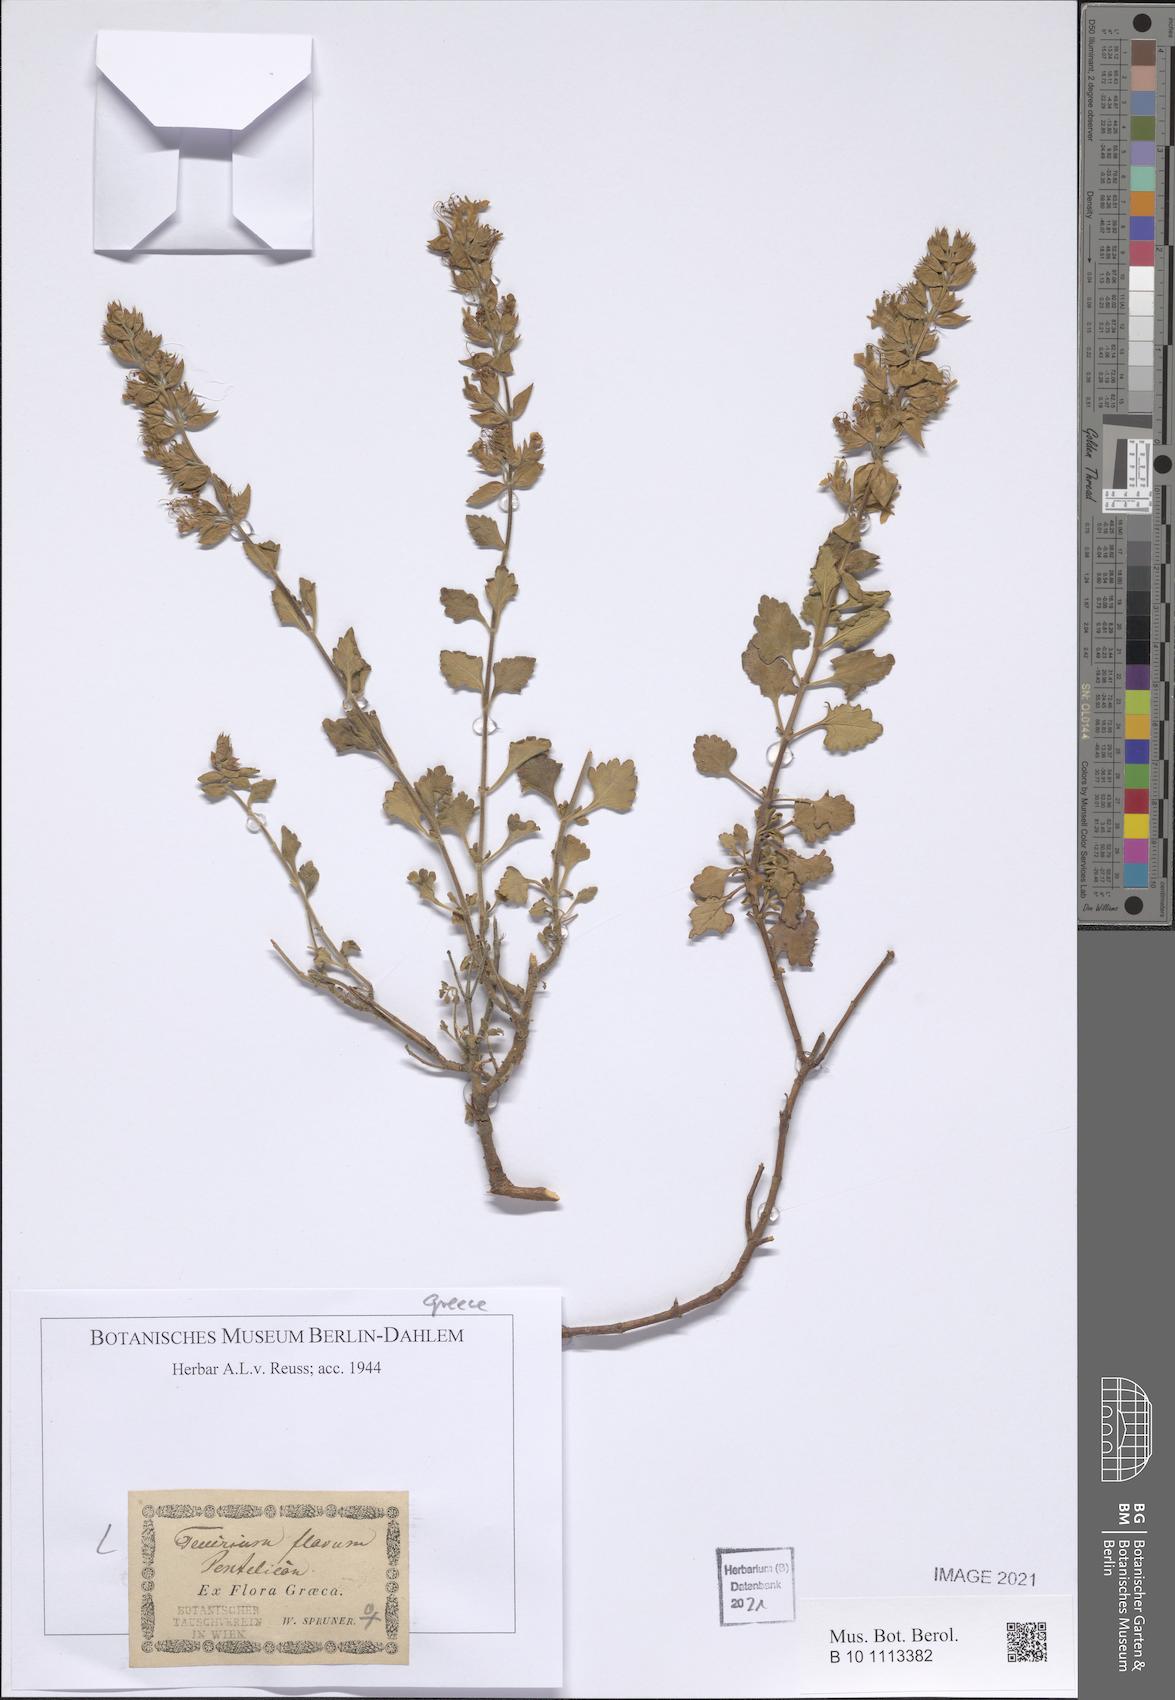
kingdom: Plantae
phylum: Tracheophyta
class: Magnoliopsida
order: Lamiales
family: Lamiaceae
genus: Teucrium
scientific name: Teucrium flavum
